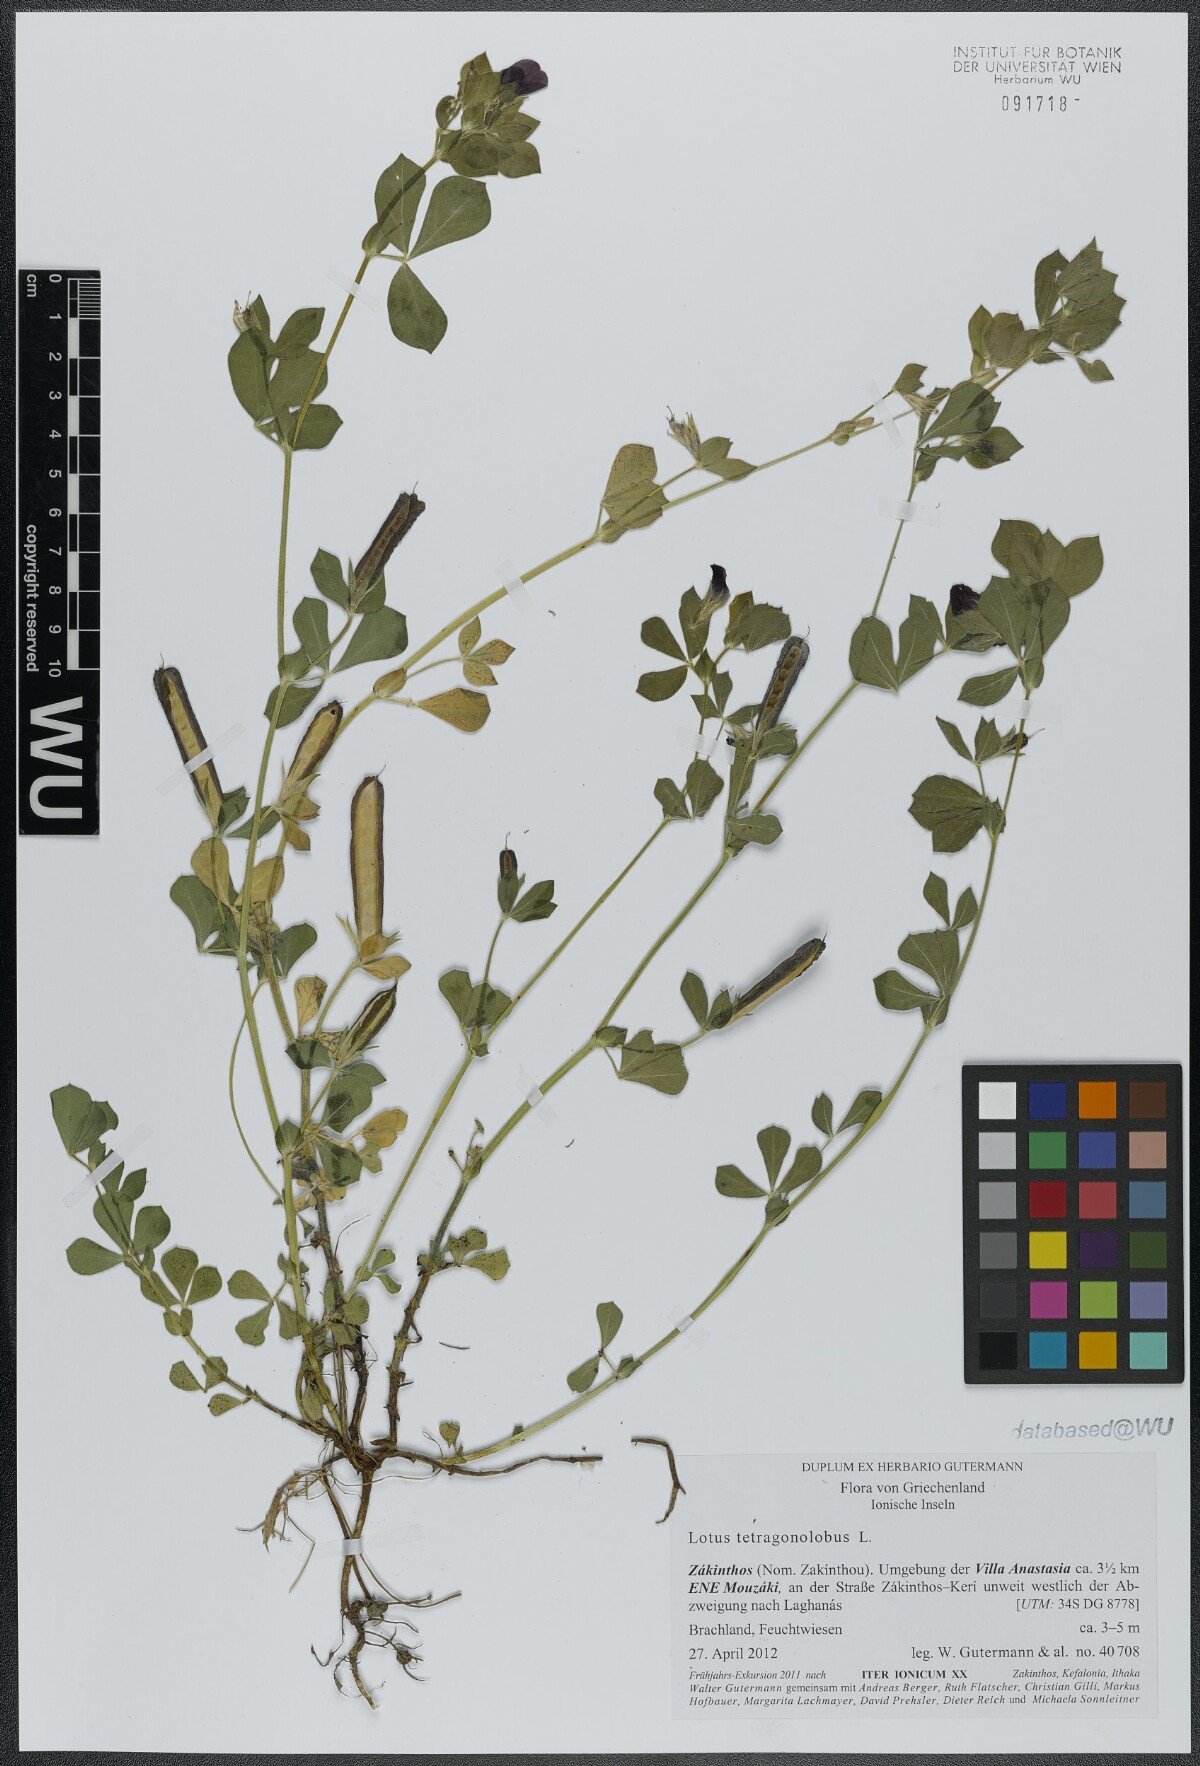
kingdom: Plantae
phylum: Tracheophyta
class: Magnoliopsida
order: Fabales
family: Fabaceae
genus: Lotus
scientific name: Lotus tetragonolobus
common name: Asparagus-pea
